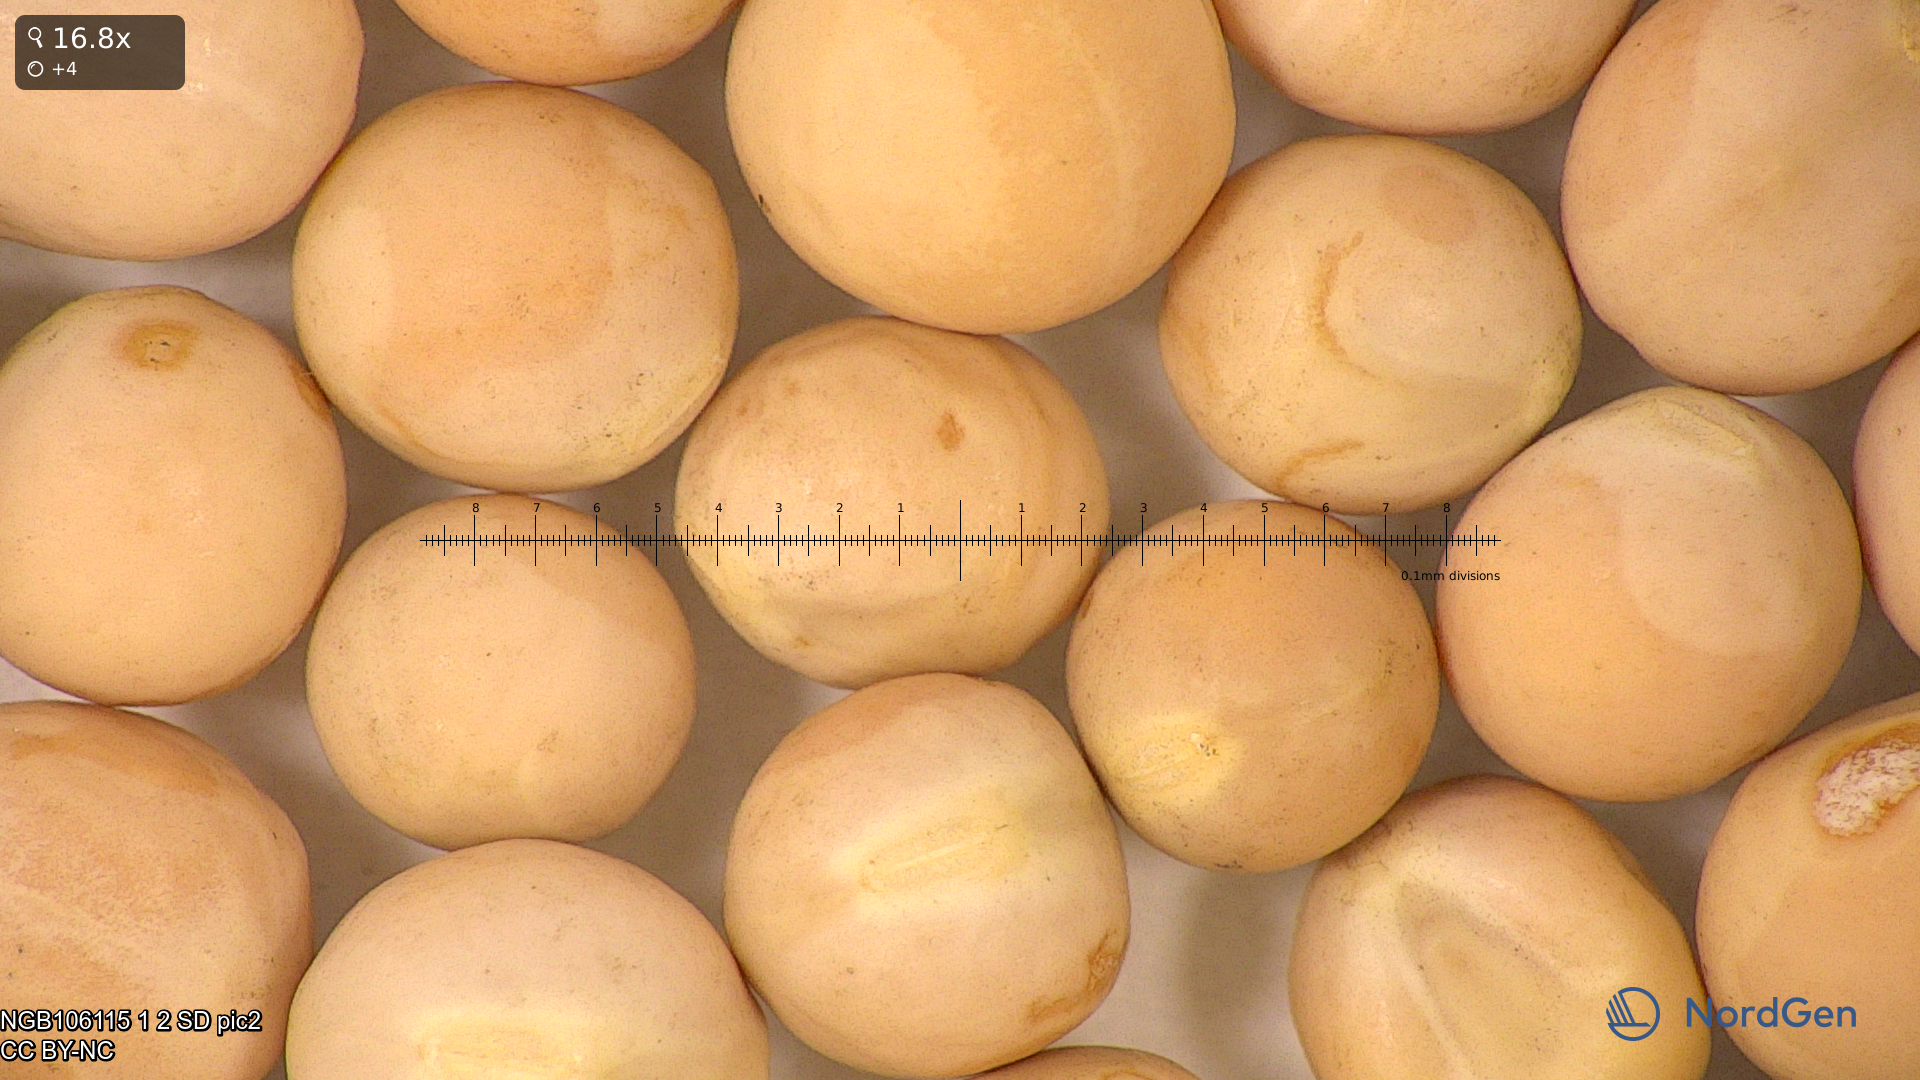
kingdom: Plantae
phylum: Tracheophyta
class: Magnoliopsida
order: Fabales
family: Fabaceae
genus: Lathyrus
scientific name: Lathyrus oleraceus
